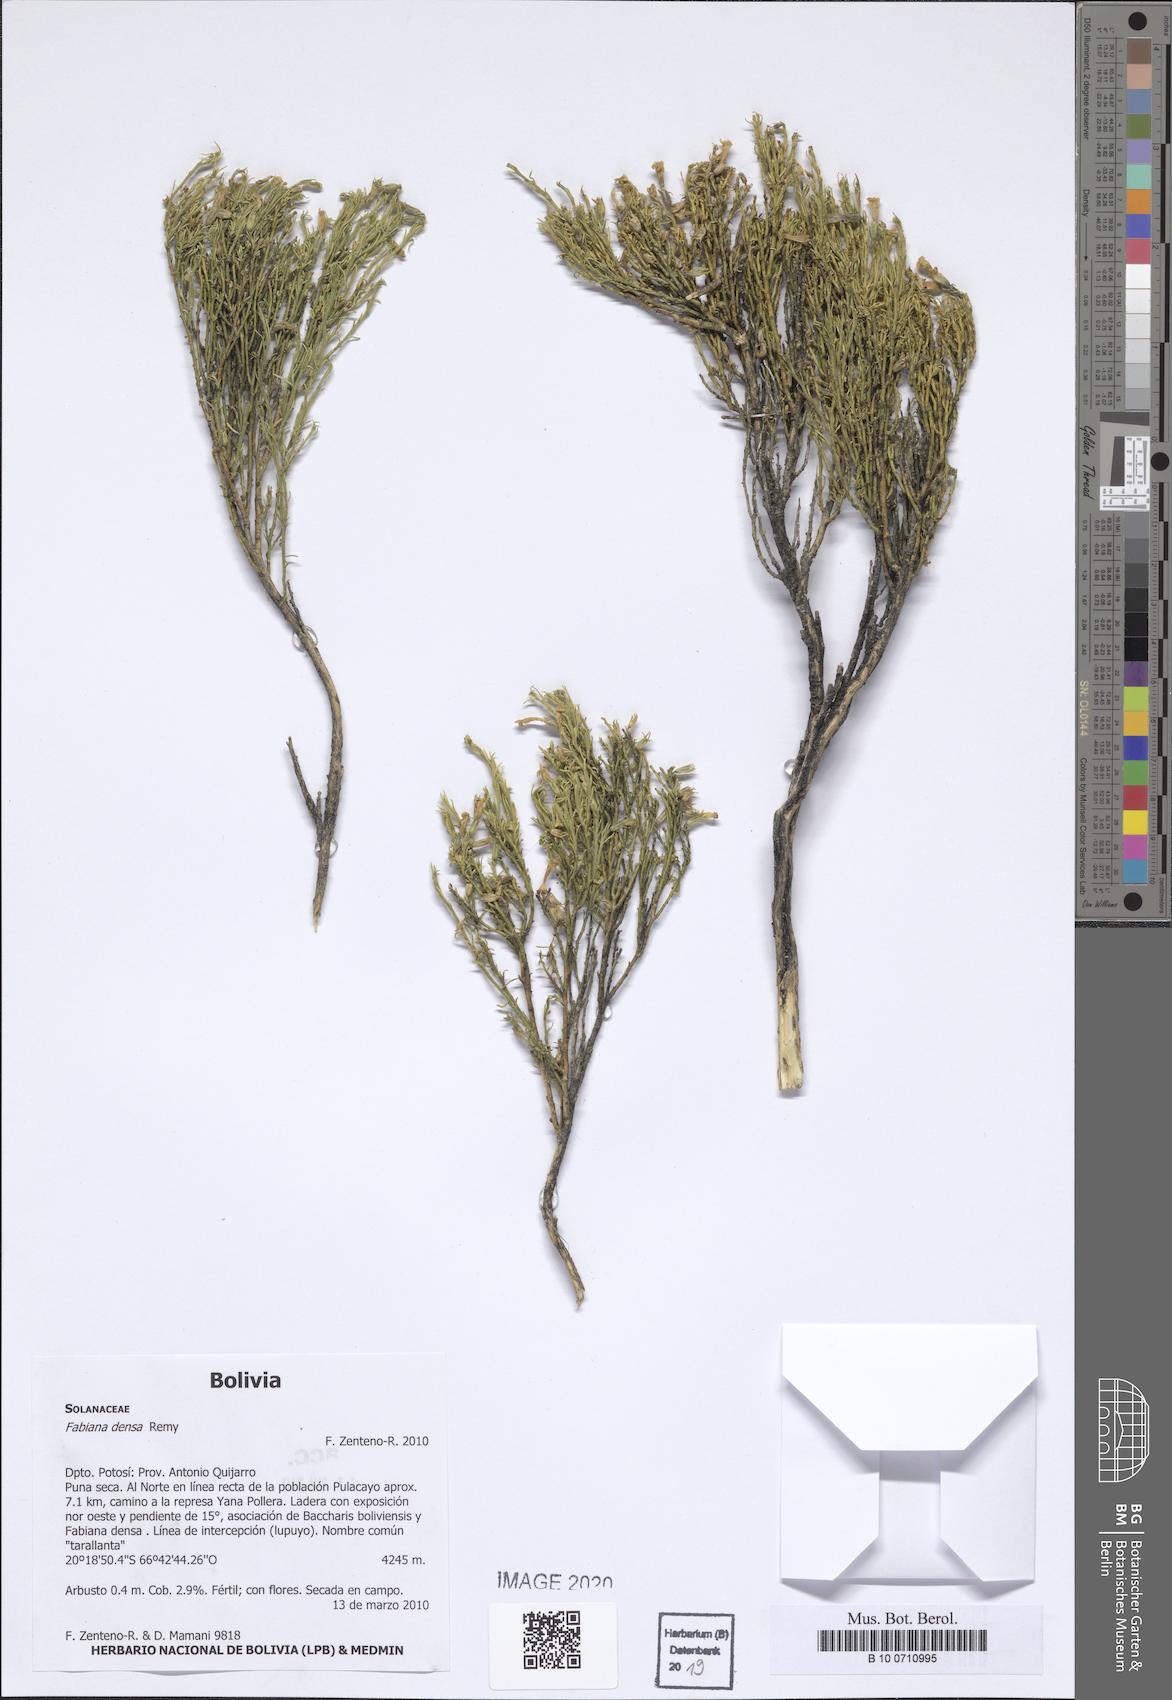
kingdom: Plantae
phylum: Tracheophyta
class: Magnoliopsida
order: Solanales
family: Solanaceae
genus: Fabiana
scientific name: Fabiana densa
